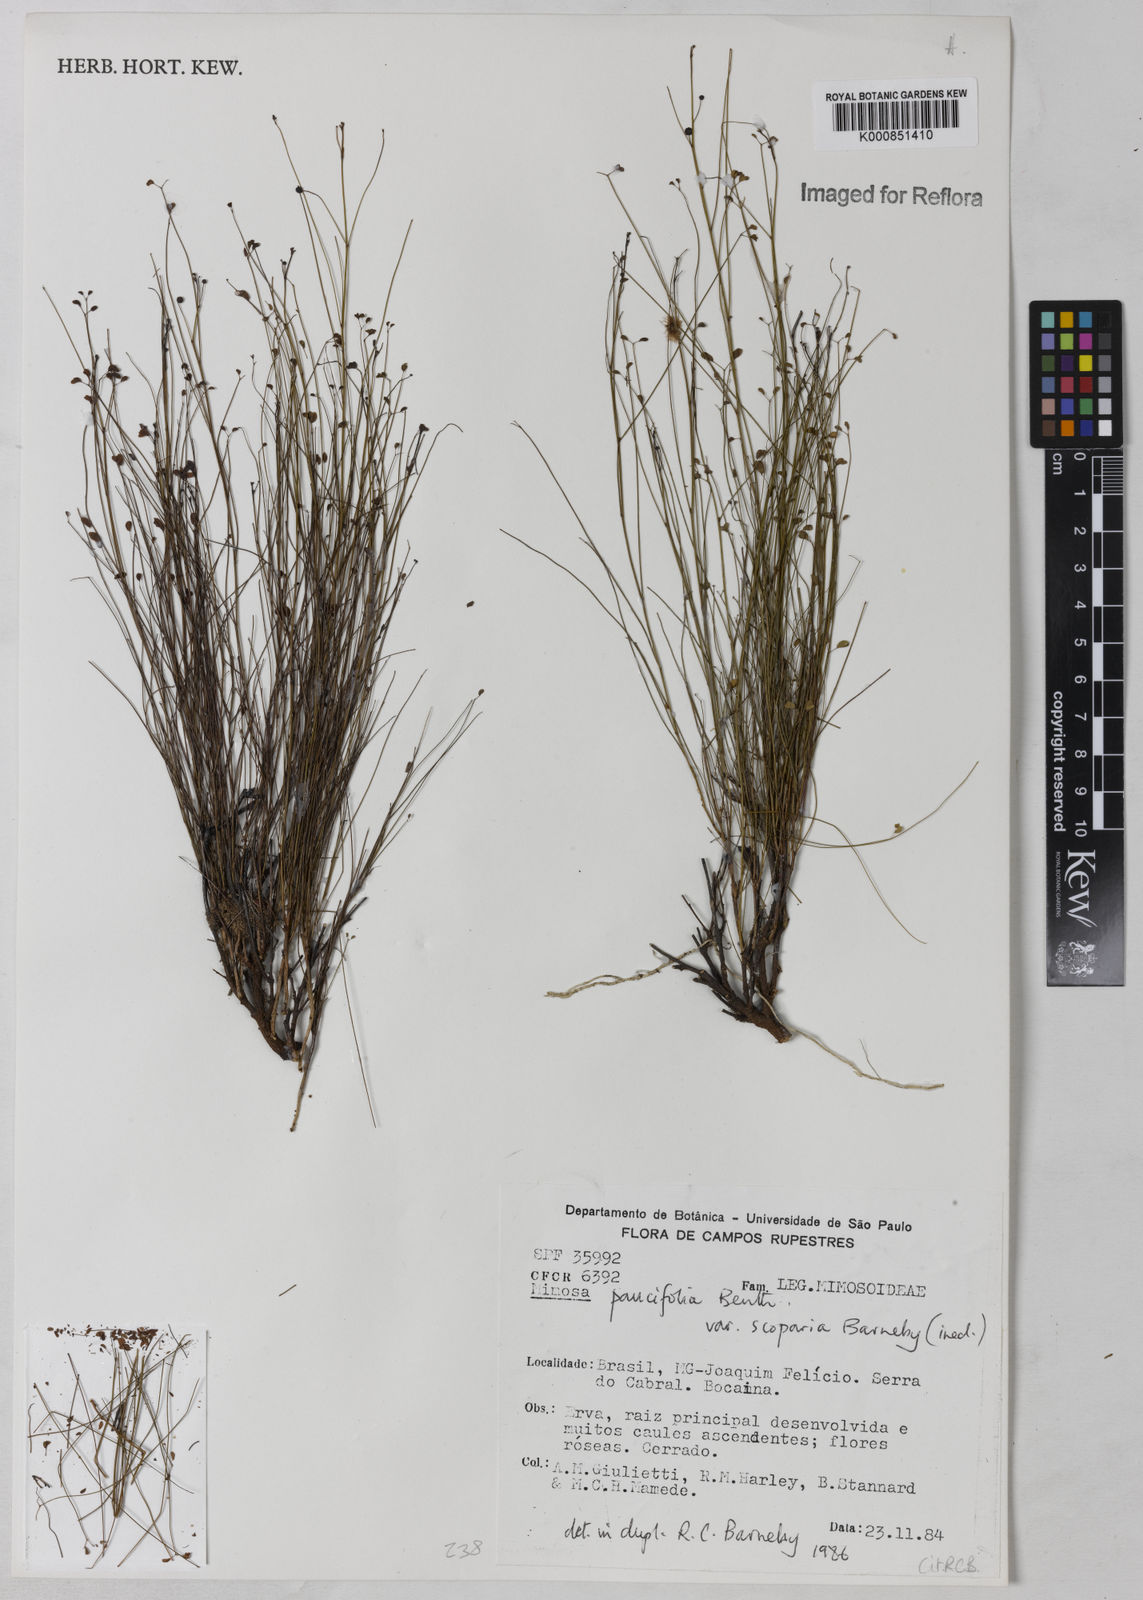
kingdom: Plantae
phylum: Tracheophyta
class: Magnoliopsida
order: Fabales
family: Fabaceae
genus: Mimosa
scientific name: Mimosa paucifolia
